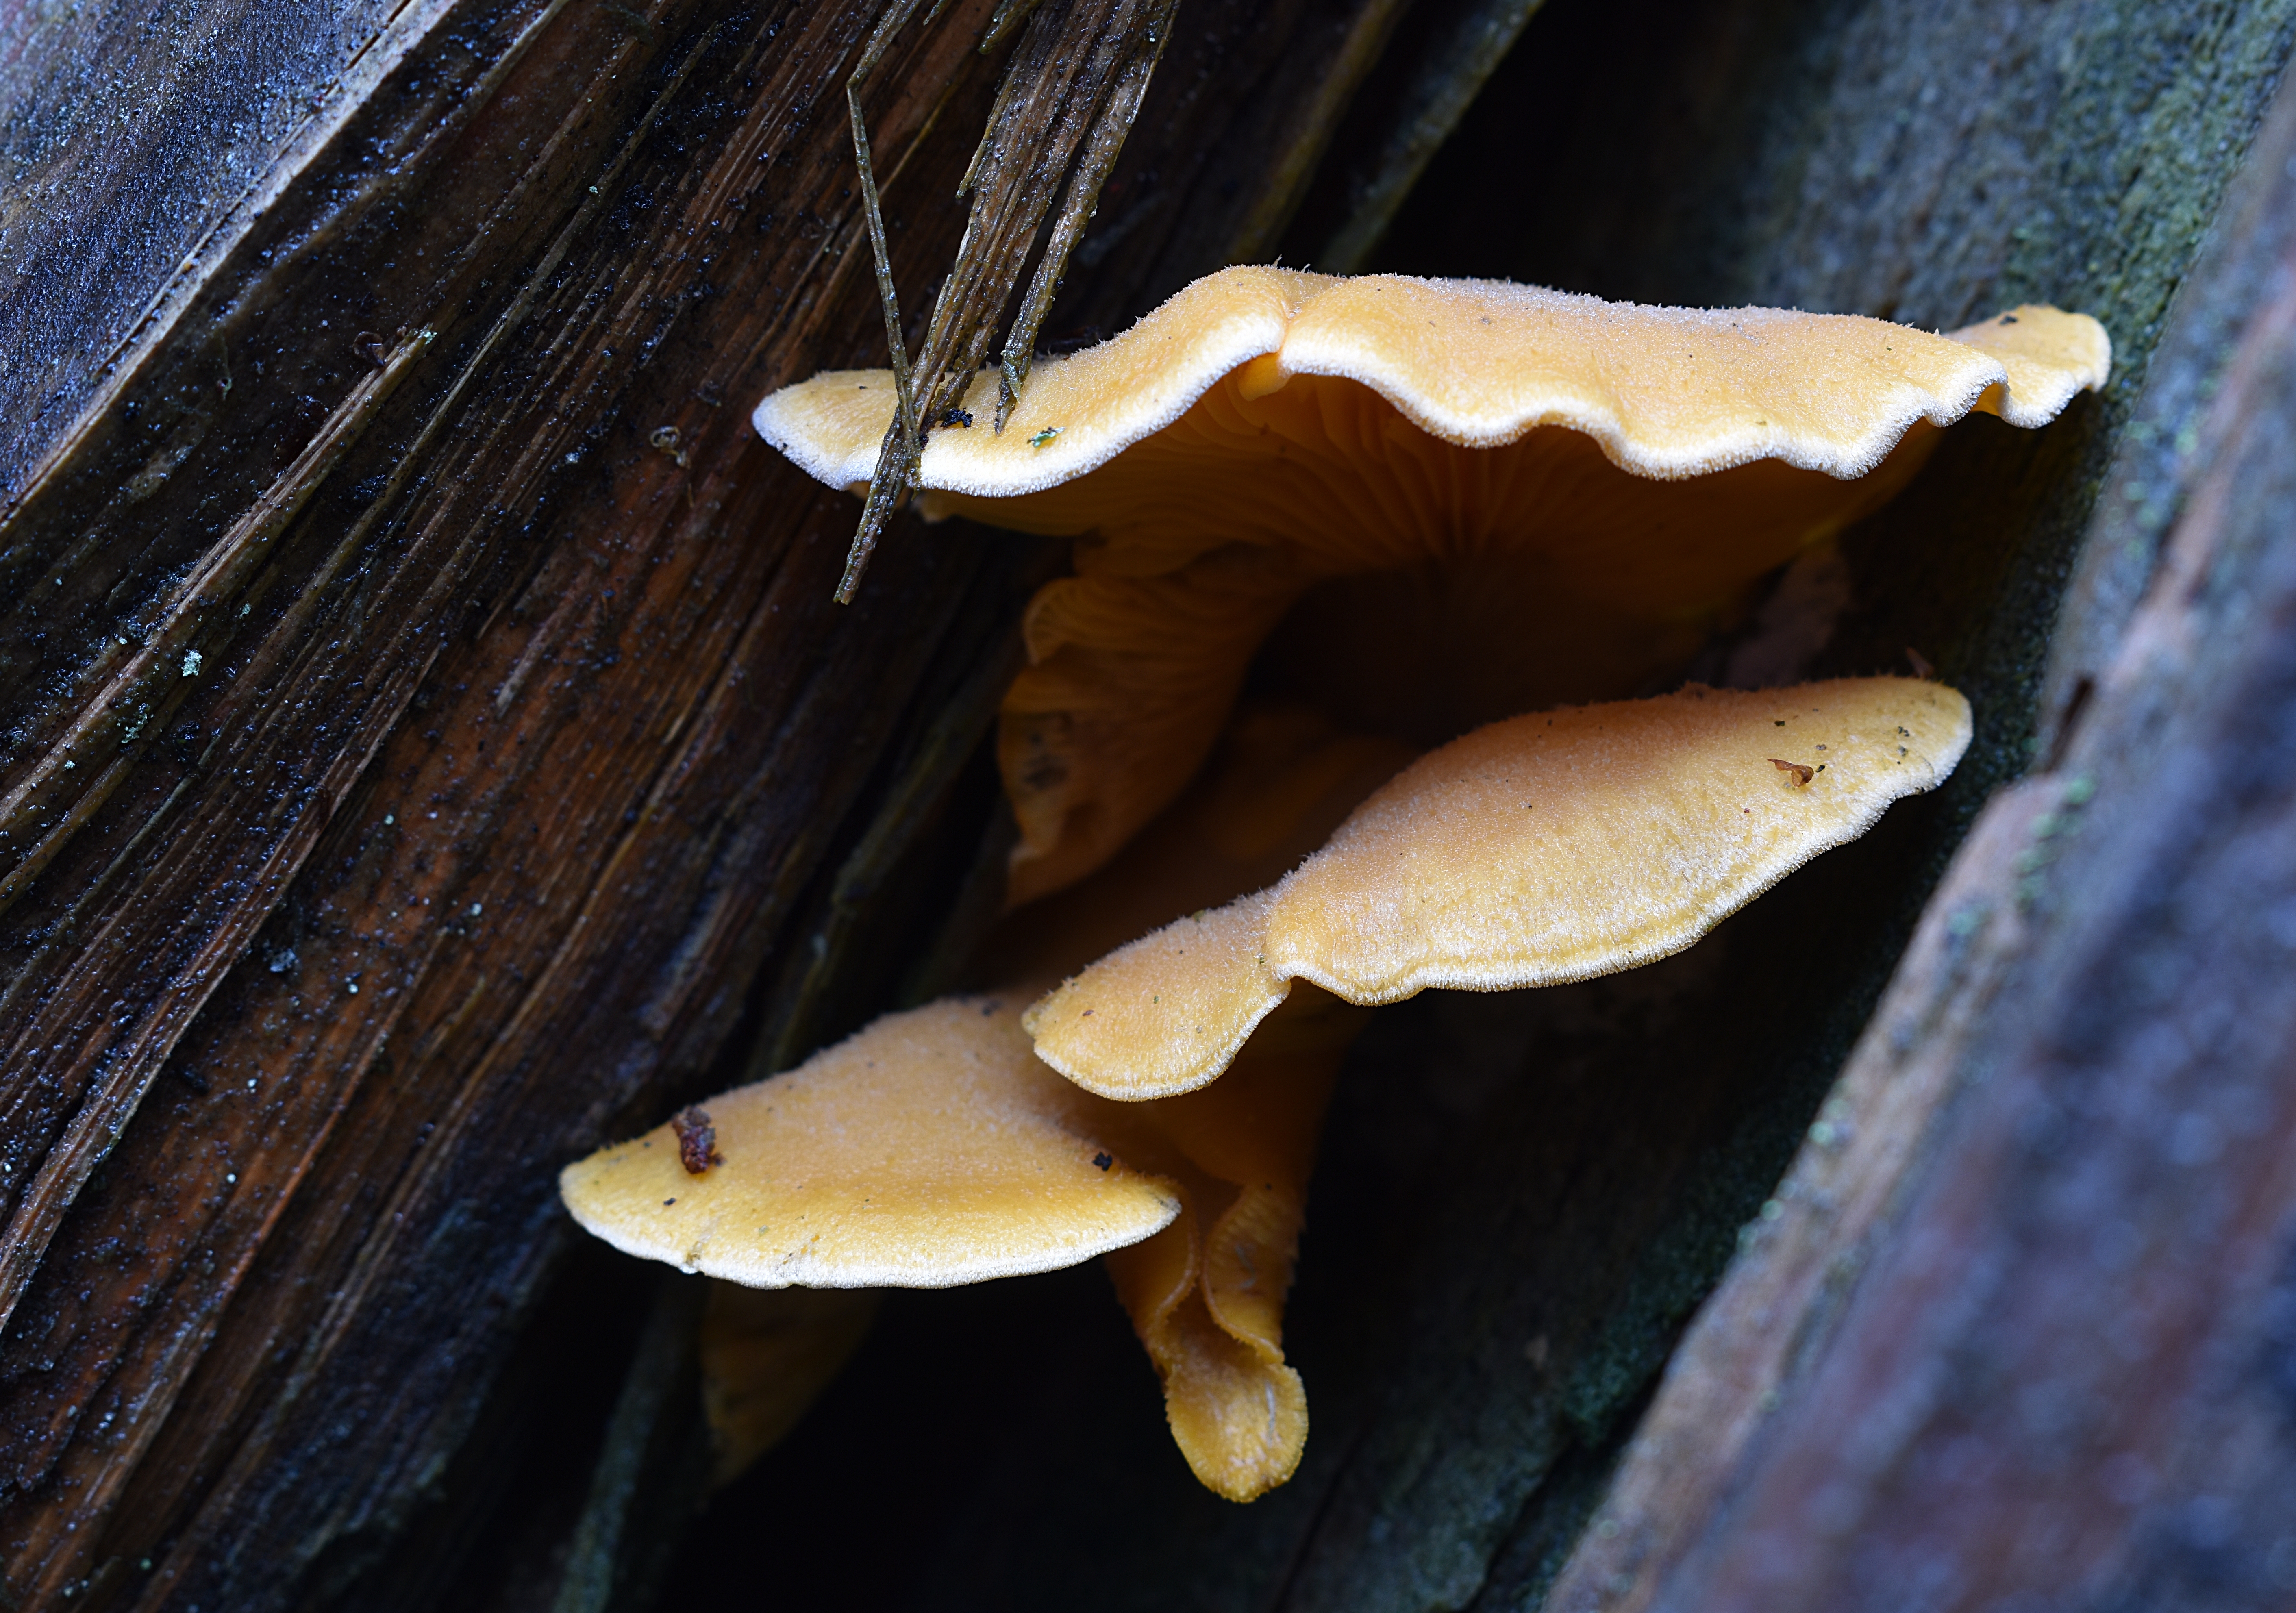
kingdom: Fungi
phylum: Basidiomycota
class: Agaricomycetes
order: Agaricales
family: Phyllotopsidaceae
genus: Phyllotopsis
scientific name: Phyllotopsis nidulans
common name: Orange mock oyster
